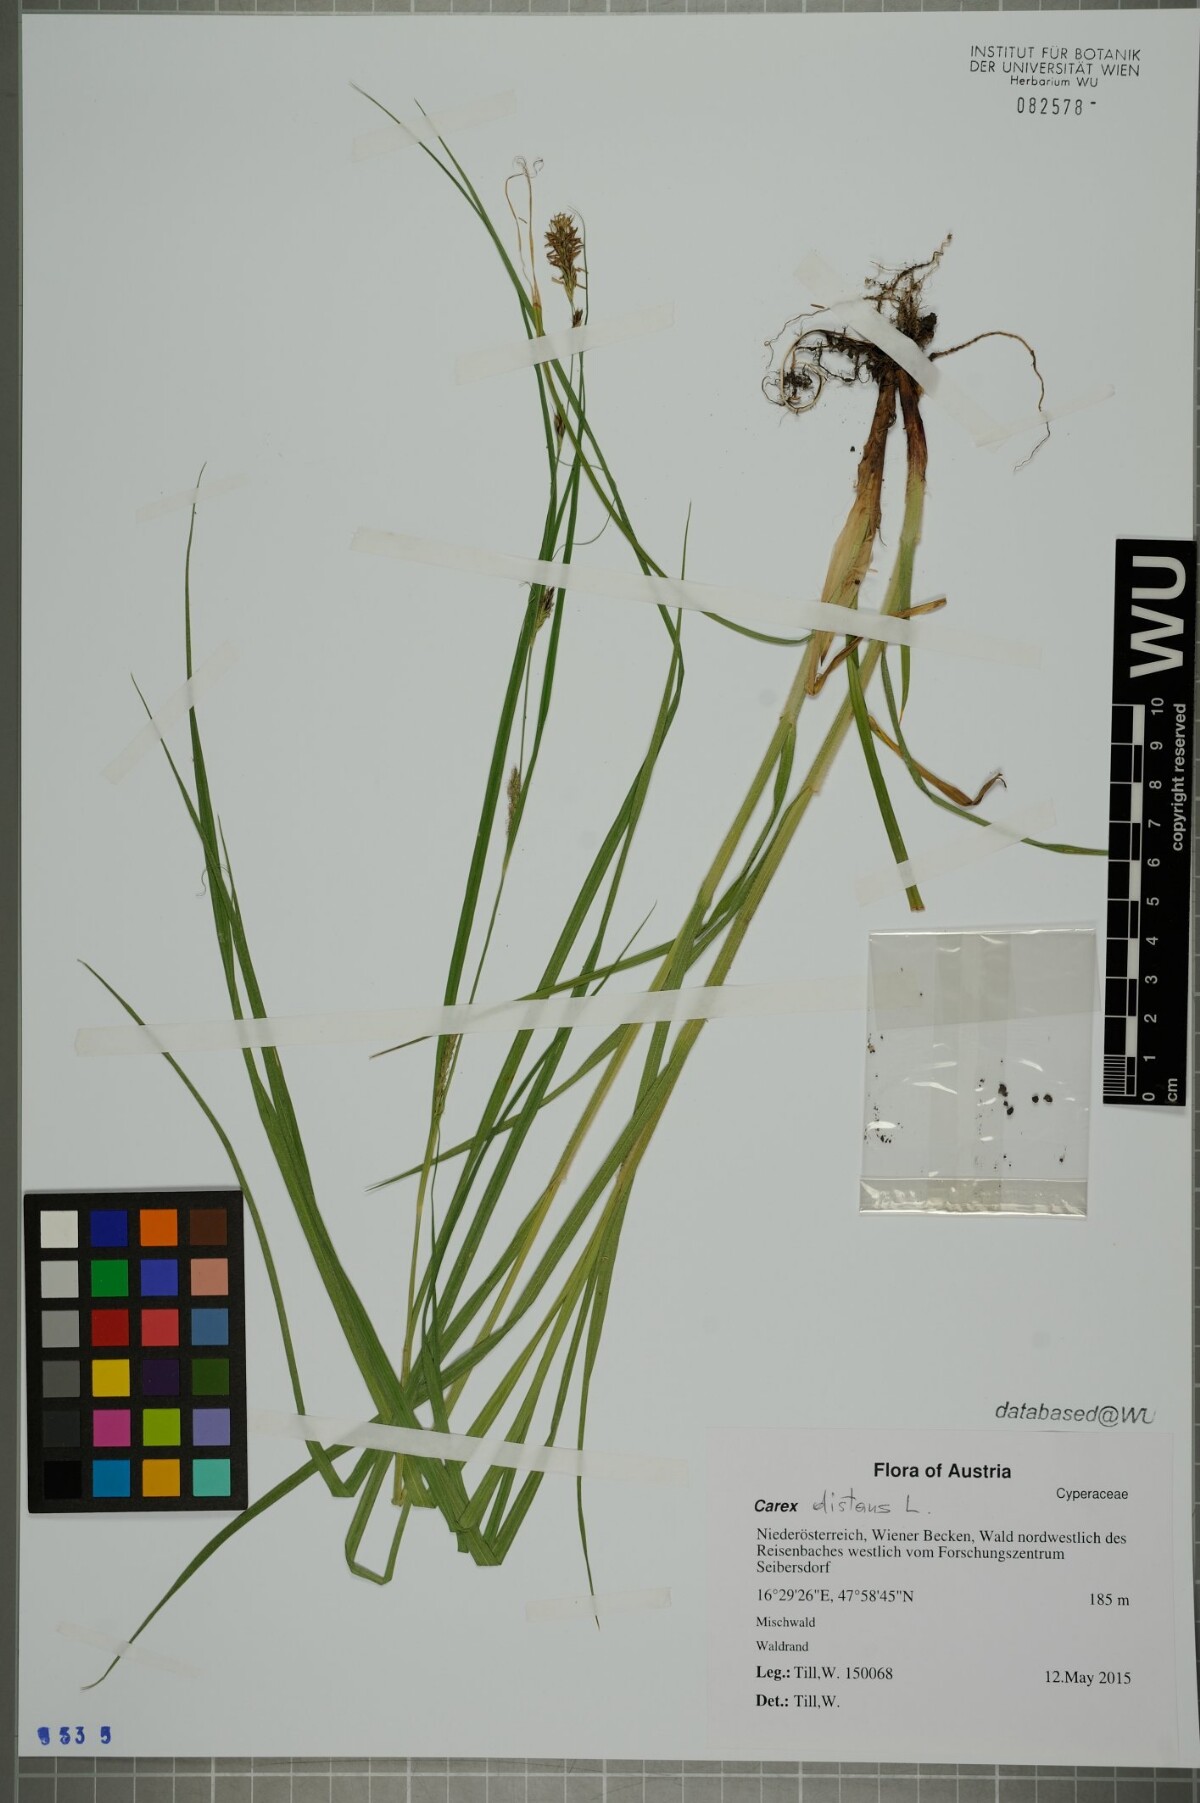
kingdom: Plantae
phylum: Tracheophyta
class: Liliopsida
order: Poales
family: Cyperaceae
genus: Carex
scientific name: Carex distans
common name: Distant sedge
